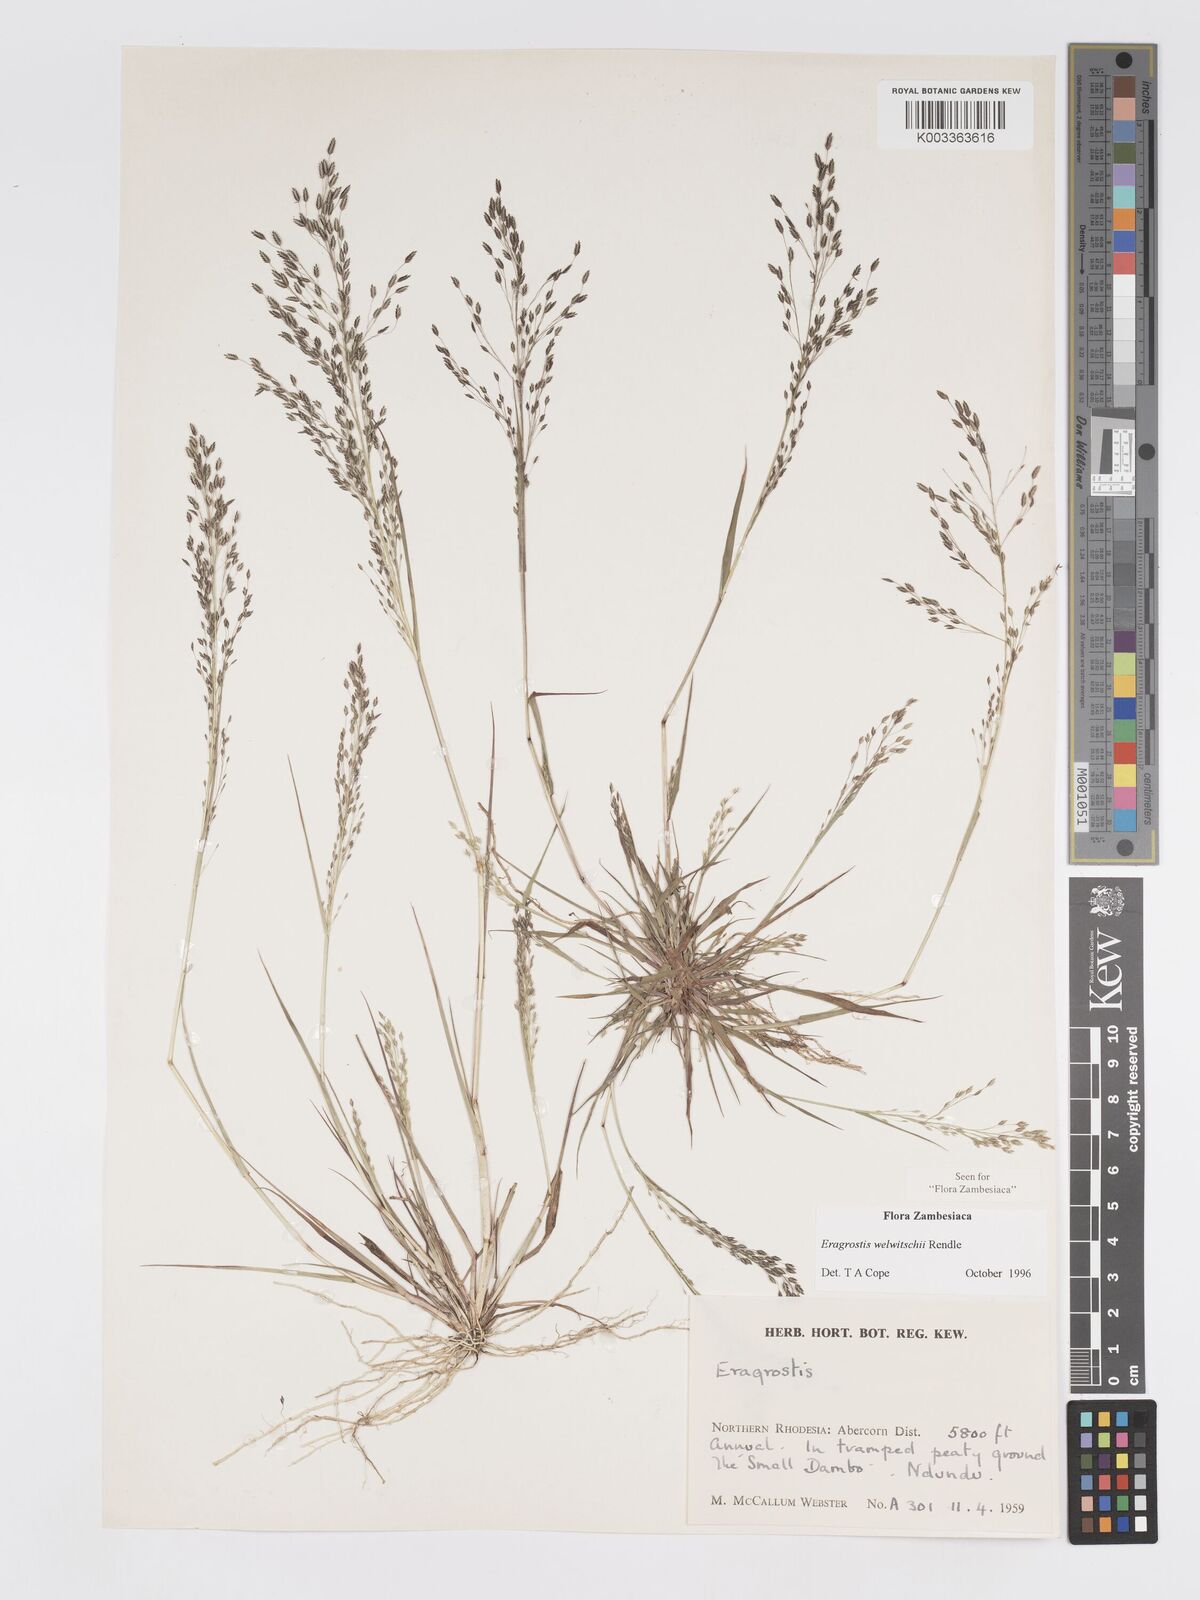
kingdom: Plantae
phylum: Tracheophyta
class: Liliopsida
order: Poales
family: Poaceae
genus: Eragrostis
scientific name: Eragrostis welwitschii
